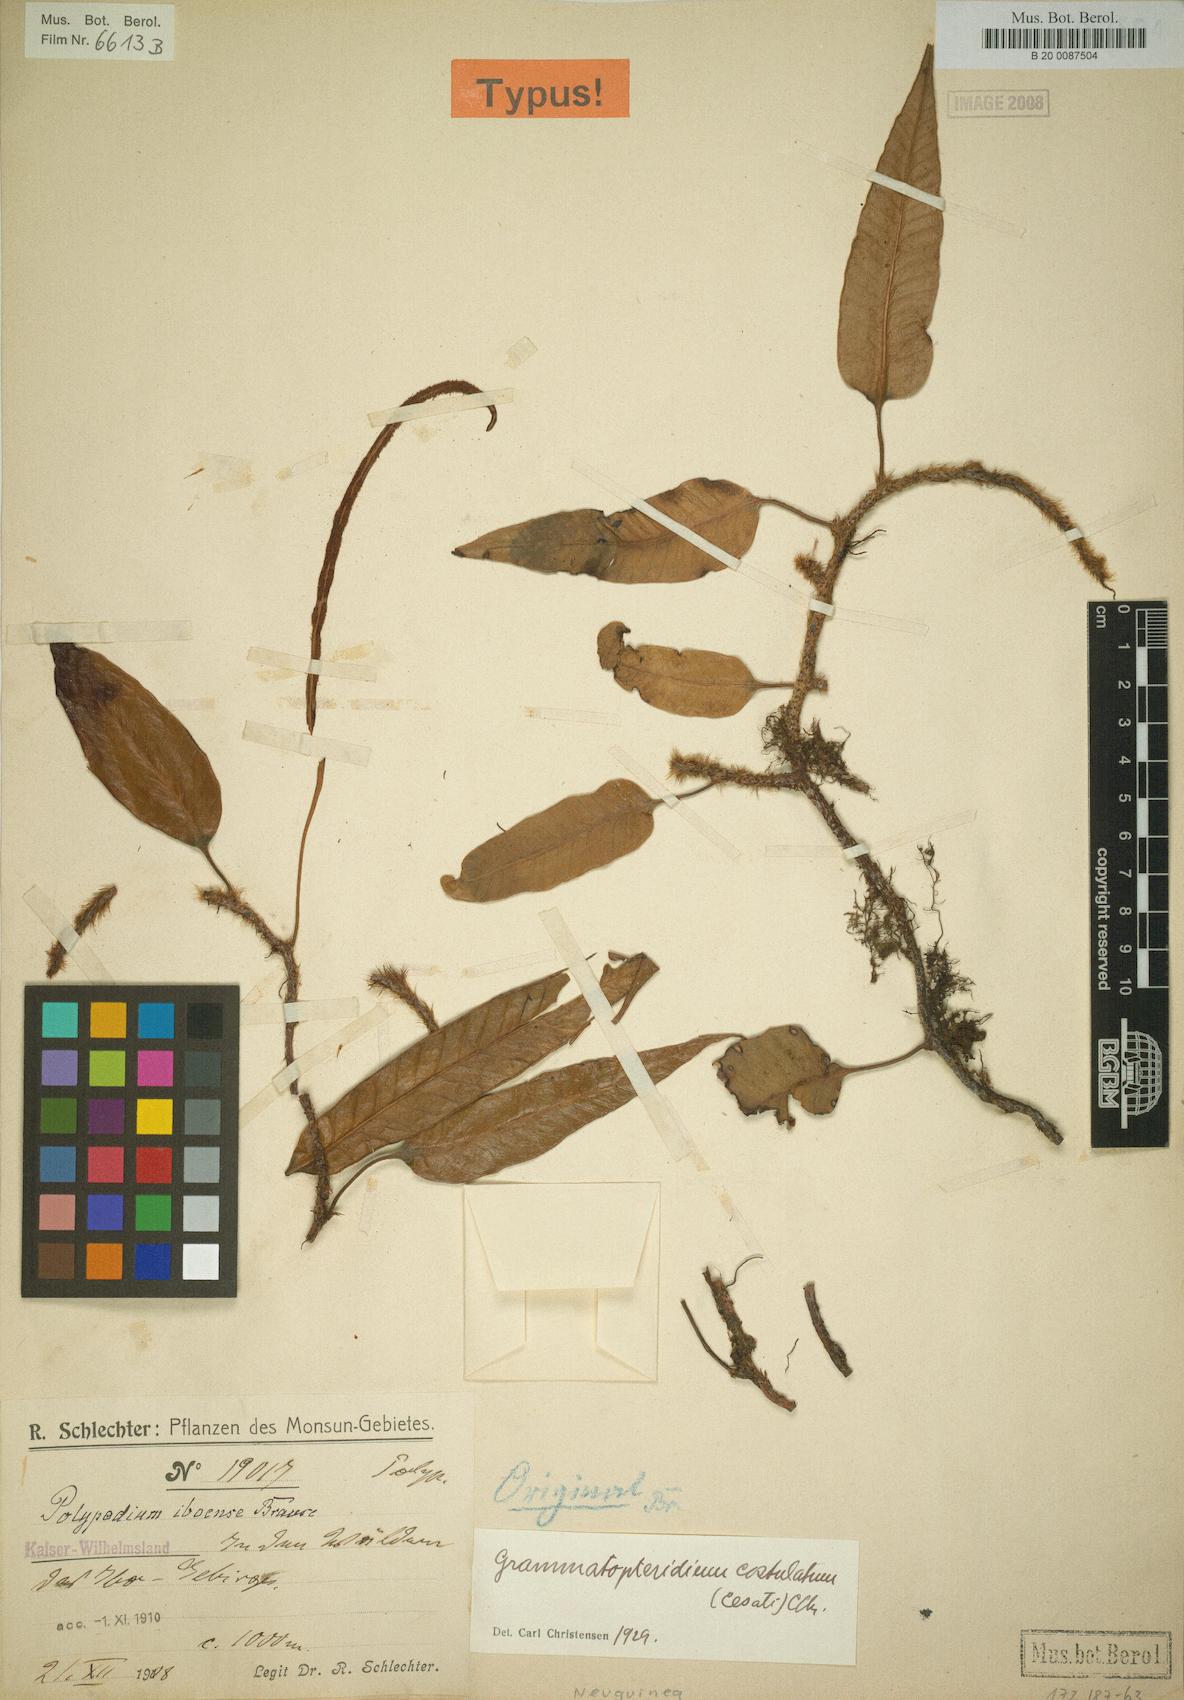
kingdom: Plantae
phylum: Tracheophyta
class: Polypodiopsida
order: Polypodiales
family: Polypodiaceae
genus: Selliguea
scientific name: Selliguea costulata
